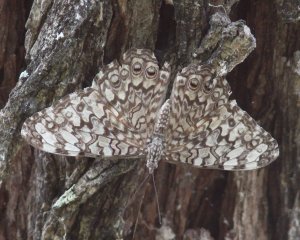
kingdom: Animalia
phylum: Arthropoda
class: Insecta
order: Lepidoptera
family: Nymphalidae
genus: Hamadryas
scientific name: Hamadryas februa
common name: Gray Cracker
